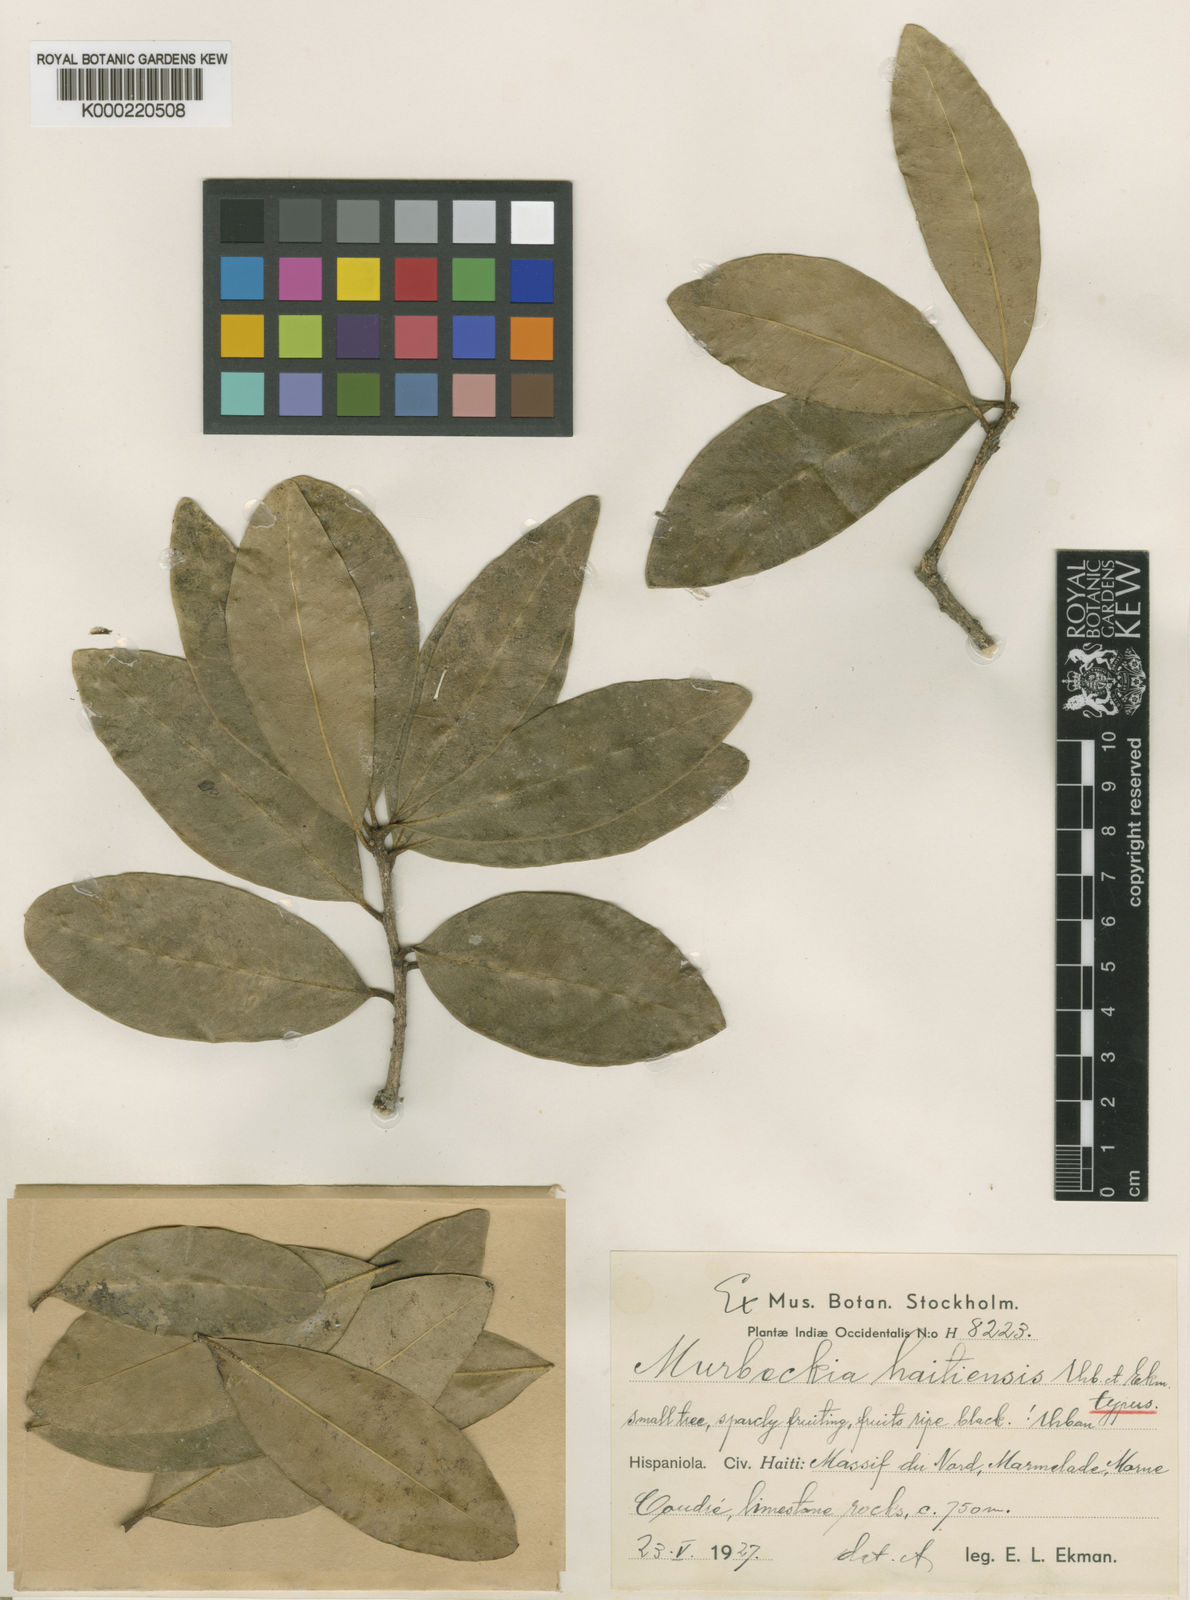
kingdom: Plantae
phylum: Tracheophyta
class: Magnoliopsida
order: Brassicales
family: Stixaceae
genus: Forchhammeria
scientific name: Forchhammeria
